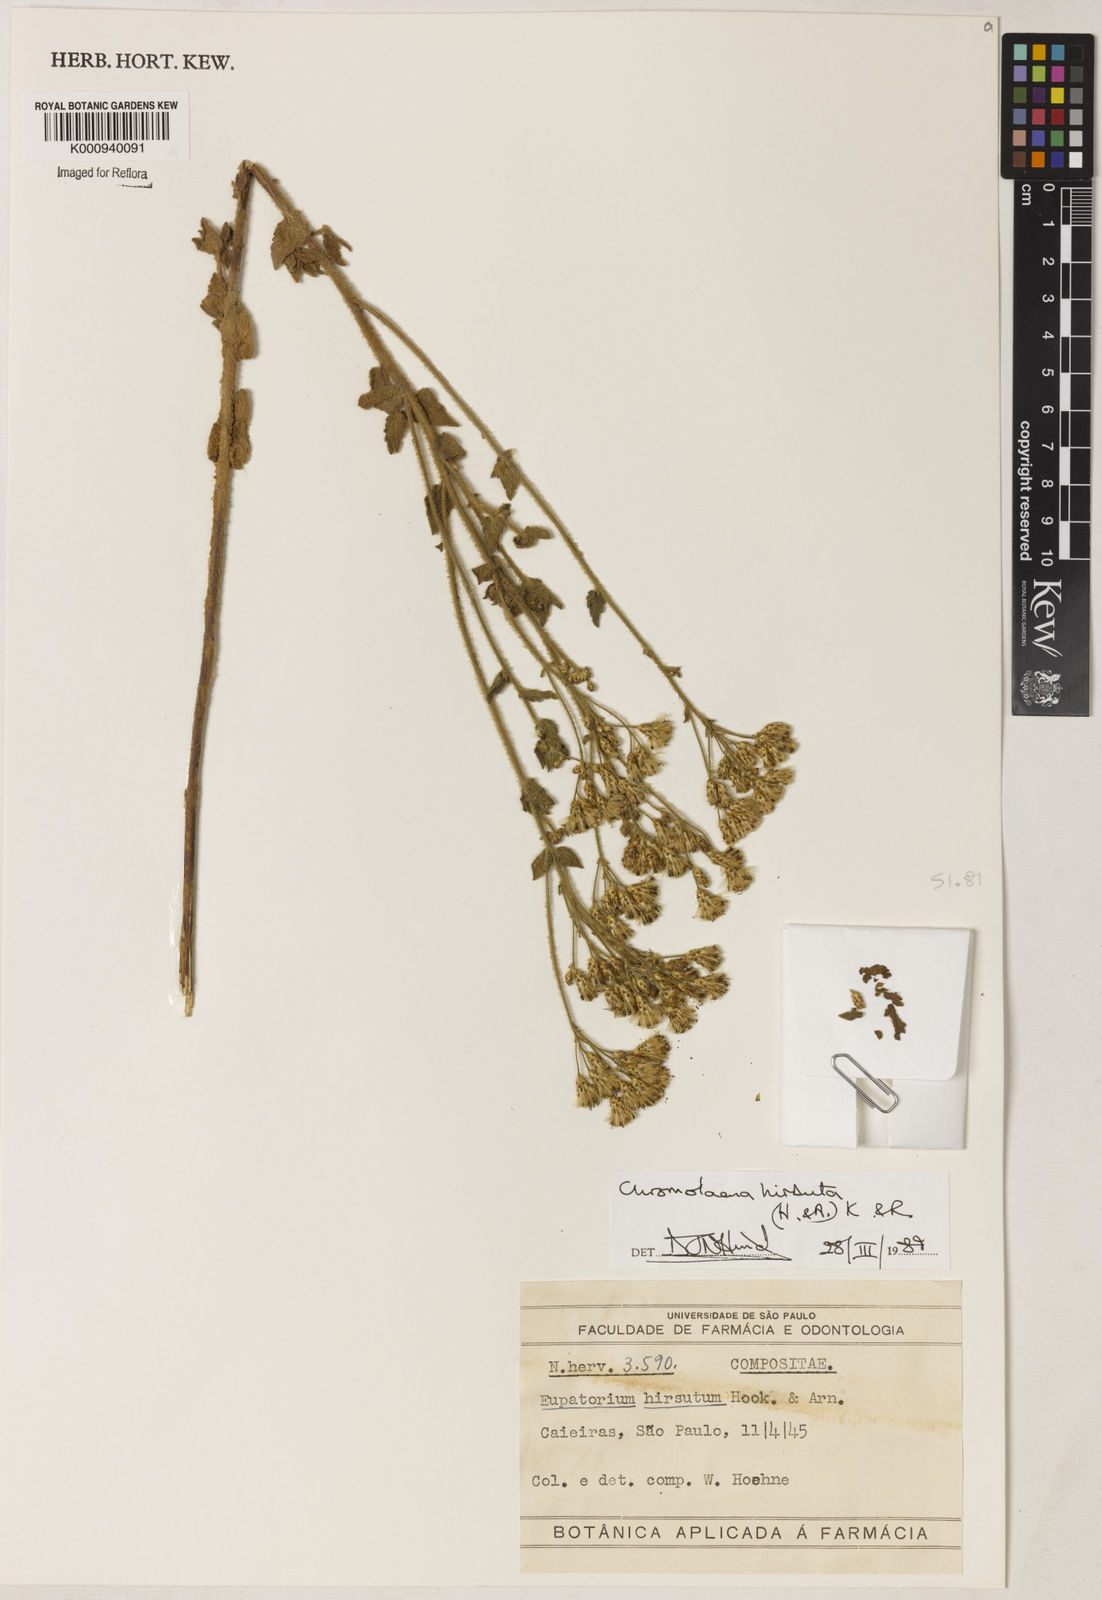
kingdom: Plantae
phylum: Tracheophyta
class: Magnoliopsida
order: Asterales
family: Asteraceae
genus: Chromolaena
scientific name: Chromolaena hirsuta
